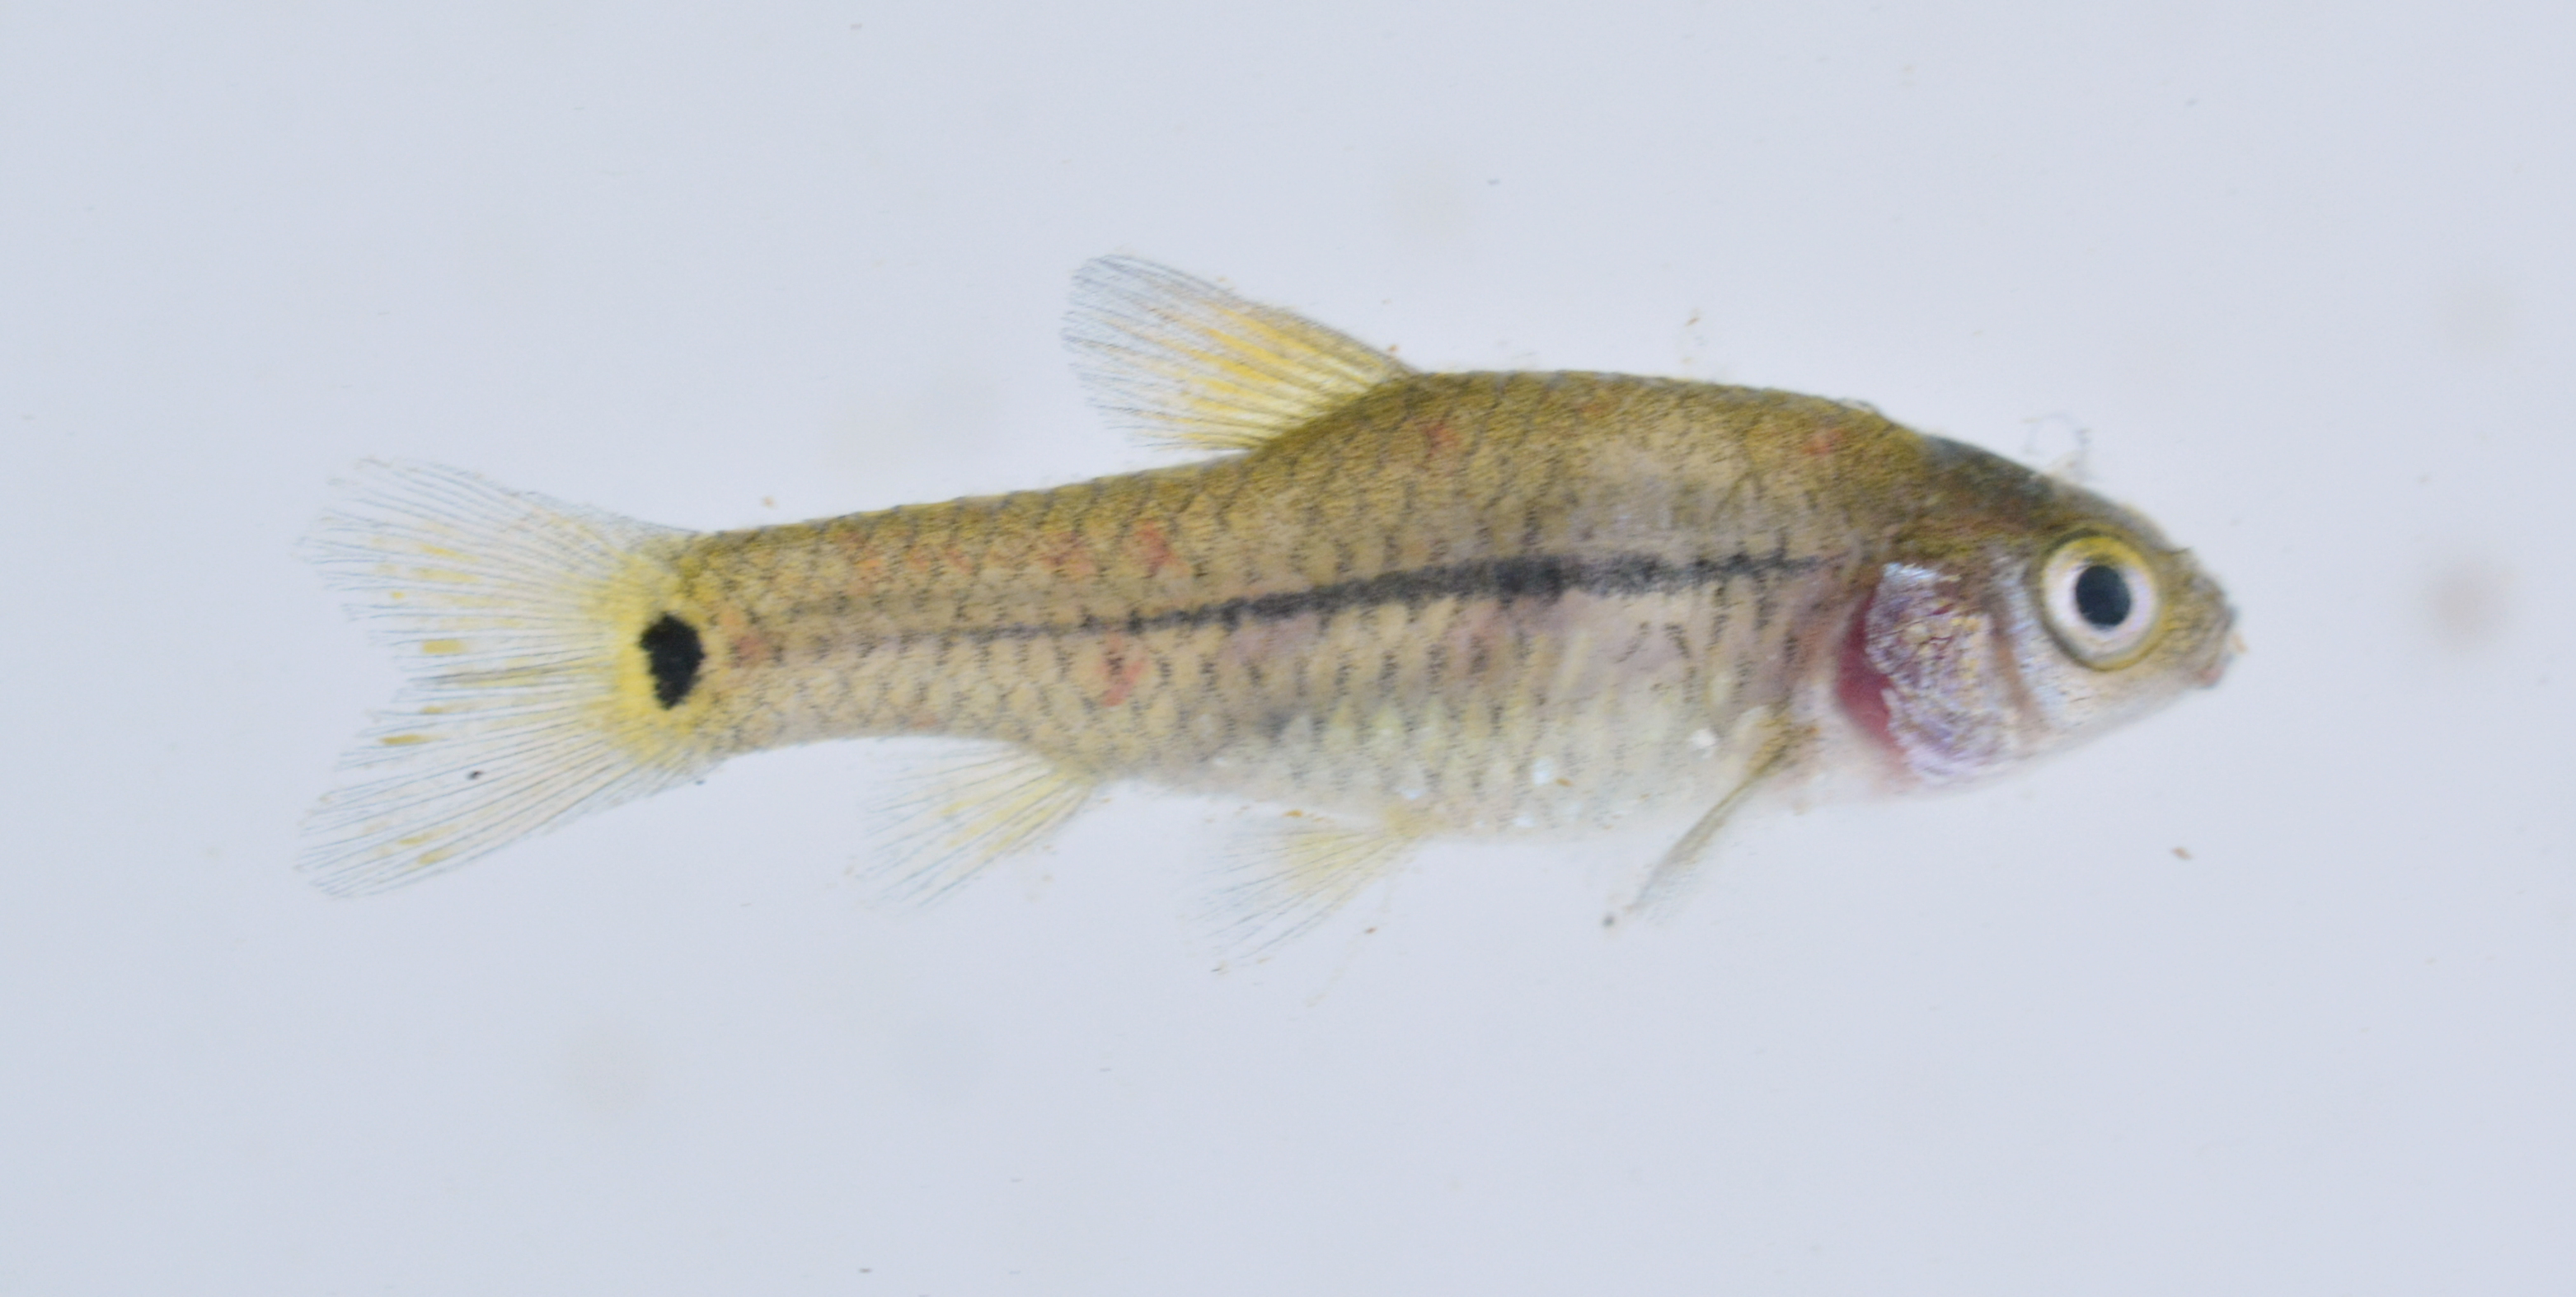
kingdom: Animalia
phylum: Chordata
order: Cypriniformes
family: Cyprinidae
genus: Enteromius
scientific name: Enteromius brevidorsalis
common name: Dwarf barb
